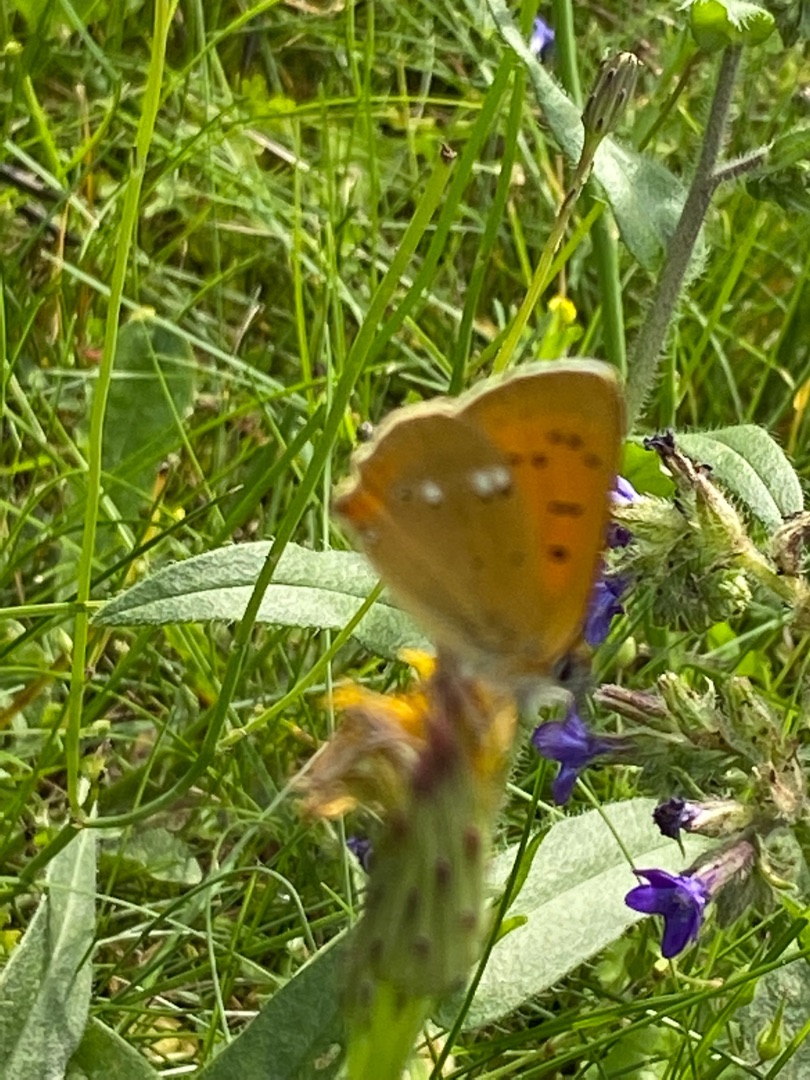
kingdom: Animalia
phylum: Arthropoda
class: Insecta
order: Lepidoptera
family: Lycaenidae
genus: Lycaena
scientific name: Lycaena virgaureae
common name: Dukatsommerfugl
